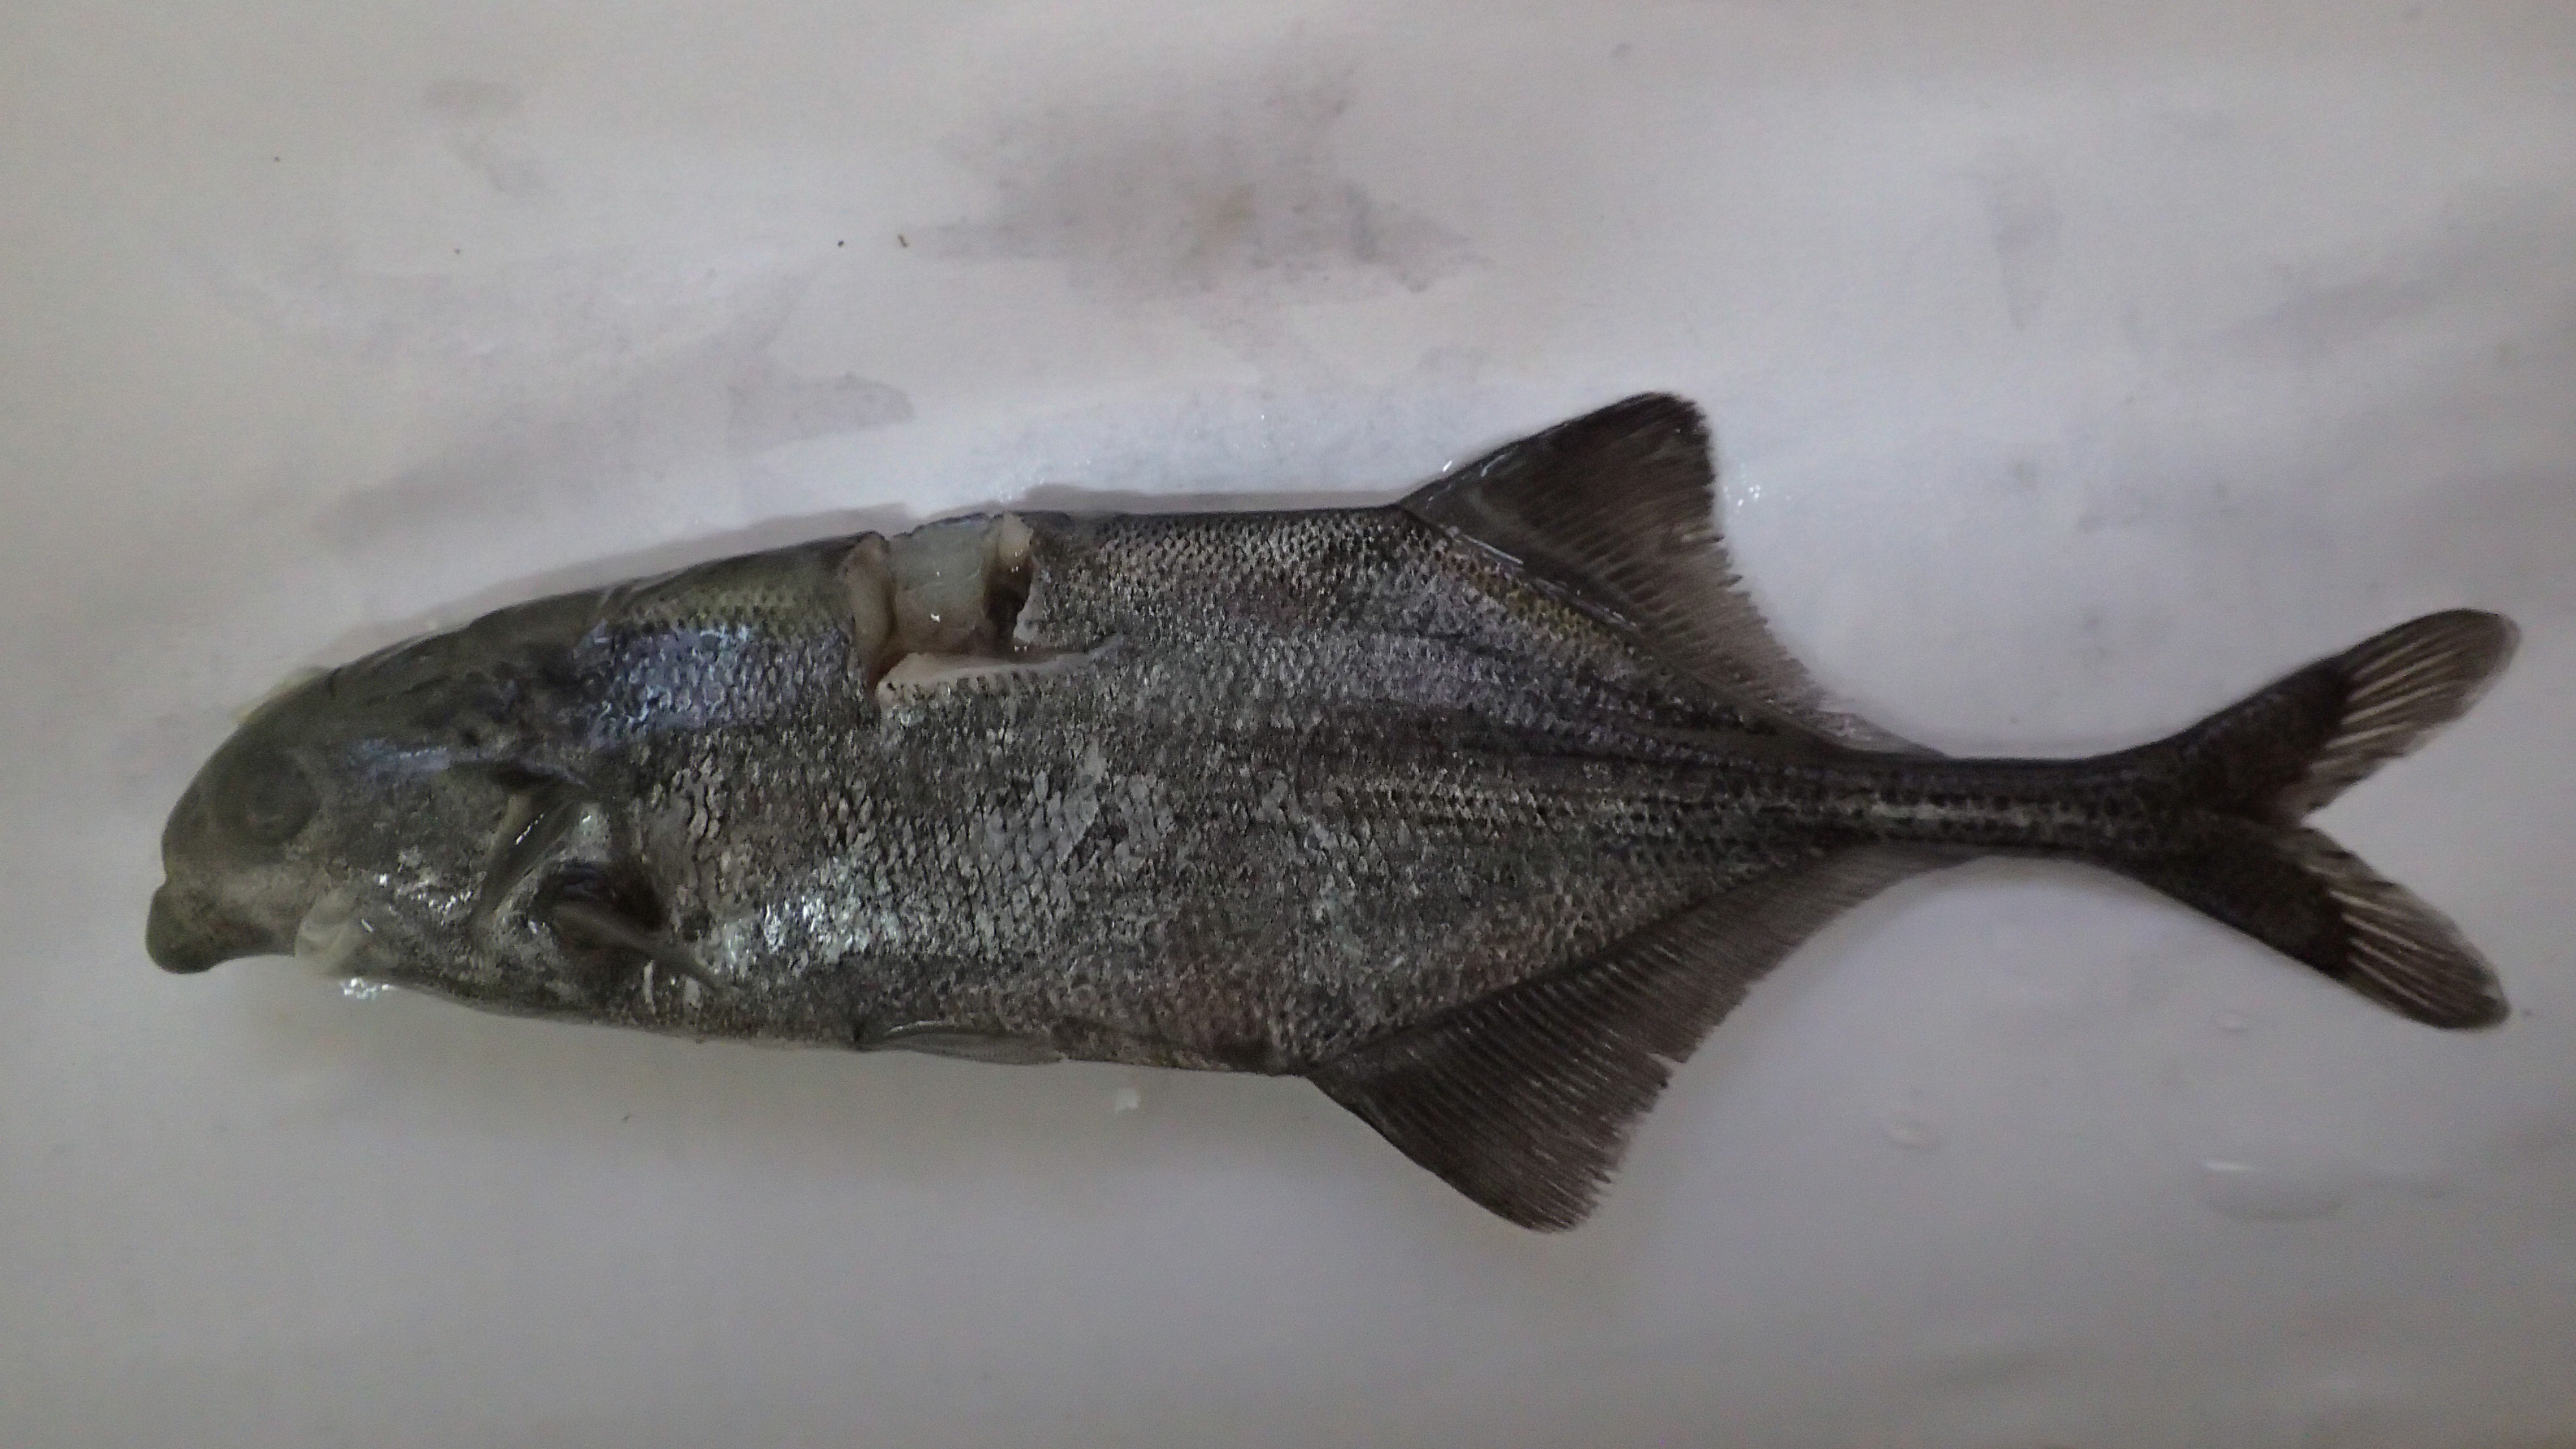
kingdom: Animalia
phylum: Chordata
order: Osteoglossiformes
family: Mormyridae
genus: Marcusenius
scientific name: Marcusenius mento
